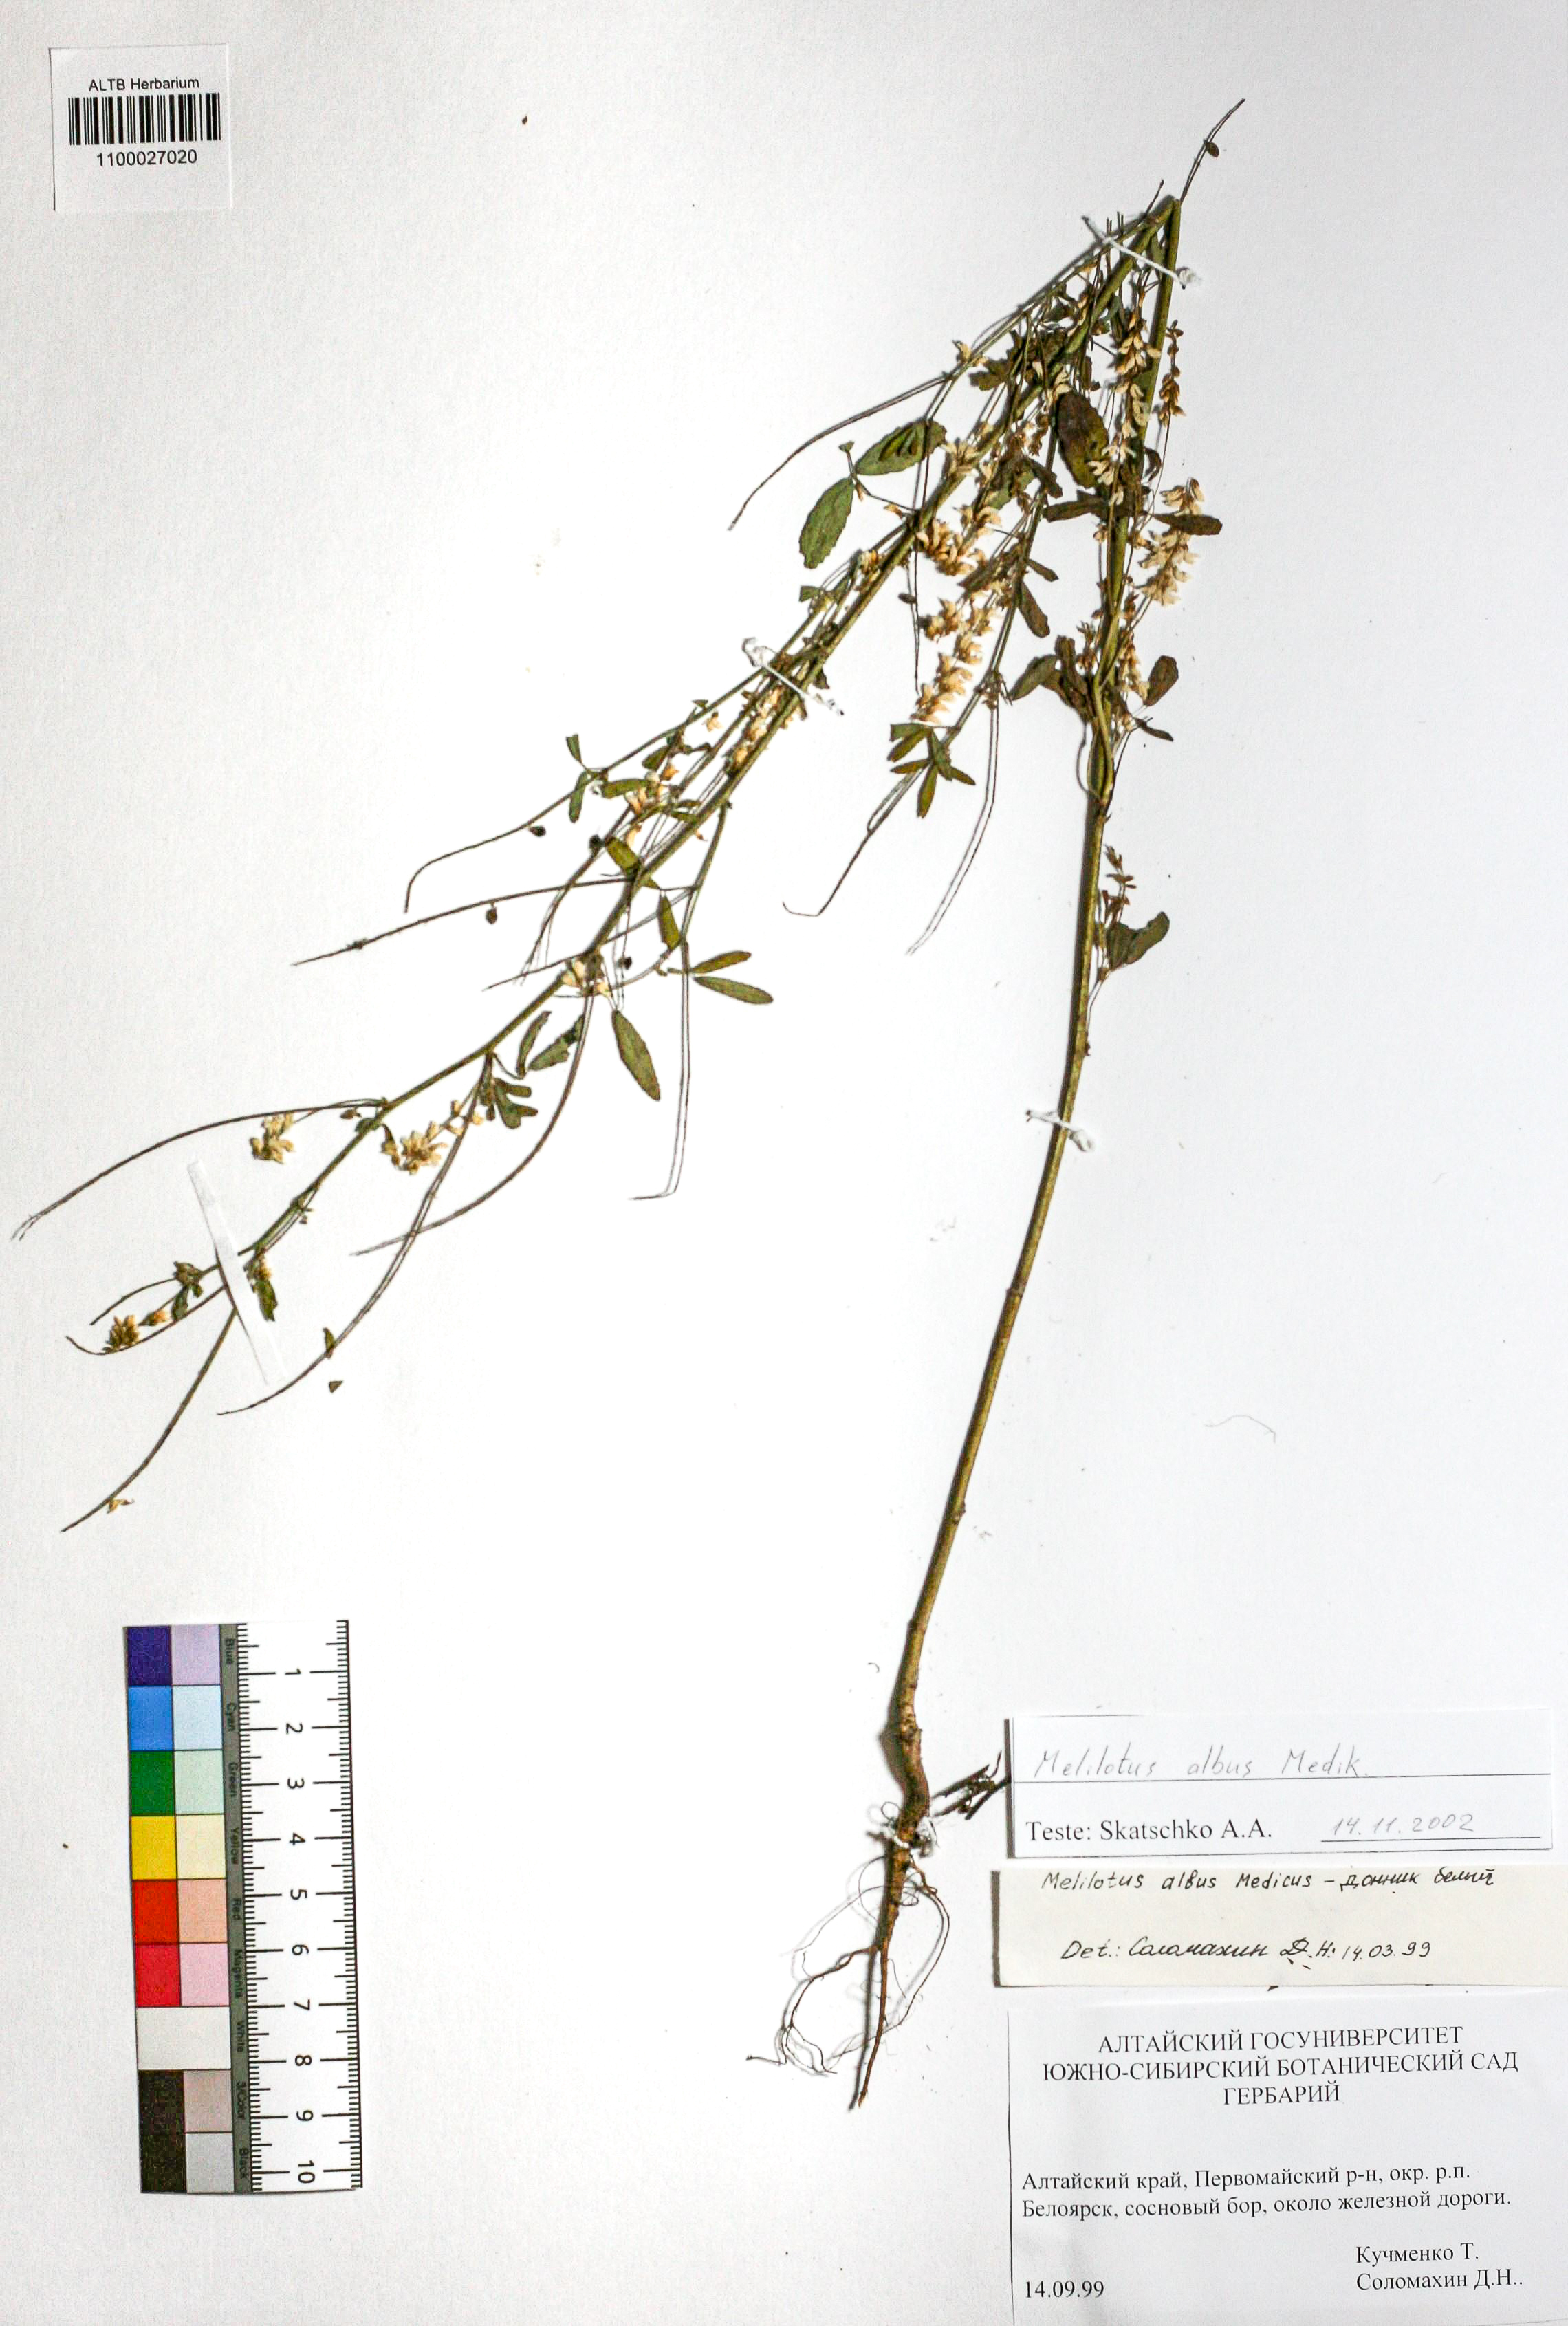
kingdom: Plantae
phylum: Tracheophyta
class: Magnoliopsida
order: Fabales
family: Fabaceae
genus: Melilotus
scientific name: Melilotus albus
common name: White melilot
